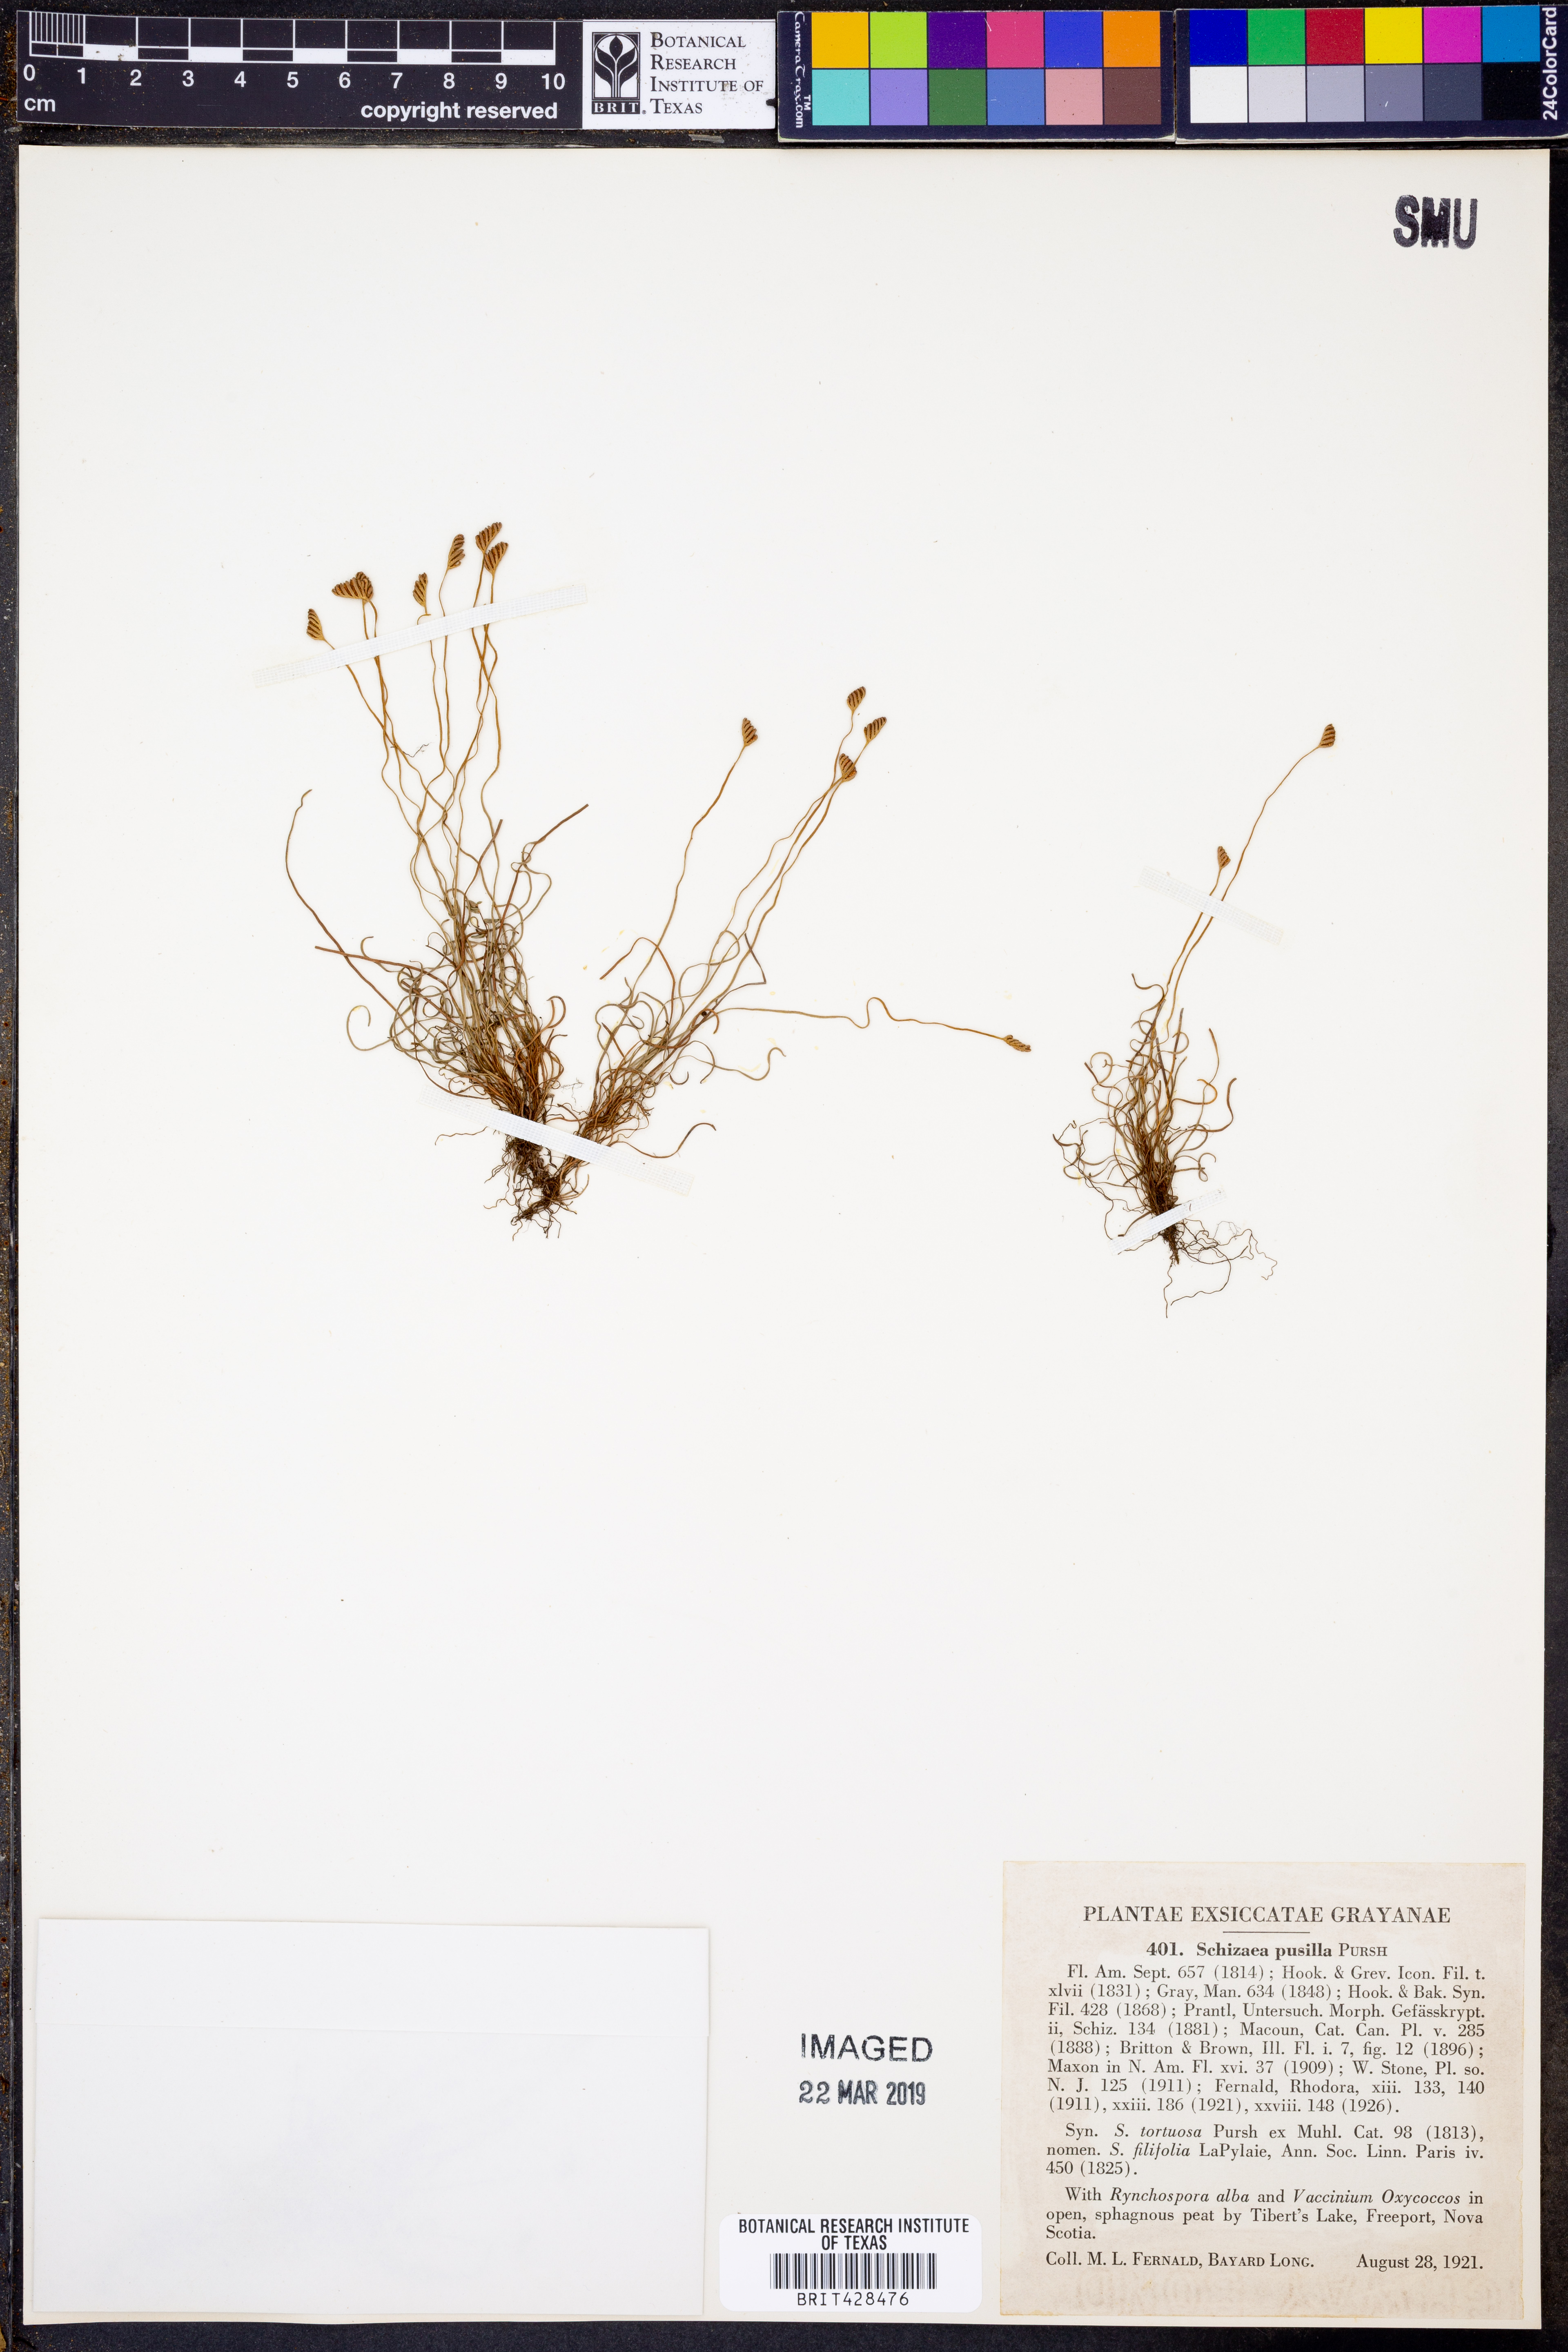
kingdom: Plantae
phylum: Tracheophyta
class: Polypodiopsida
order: Schizaeales
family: Schizaeaceae
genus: Schizaea
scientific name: Schizaea pusilla
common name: Curly-grass fern
